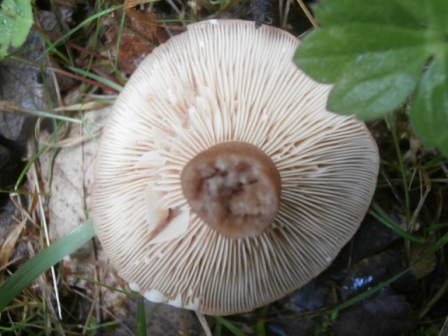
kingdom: Fungi
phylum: Basidiomycota
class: Agaricomycetes
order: Russulales
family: Russulaceae
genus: Lactarius
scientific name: Lactarius
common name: mælkehat
